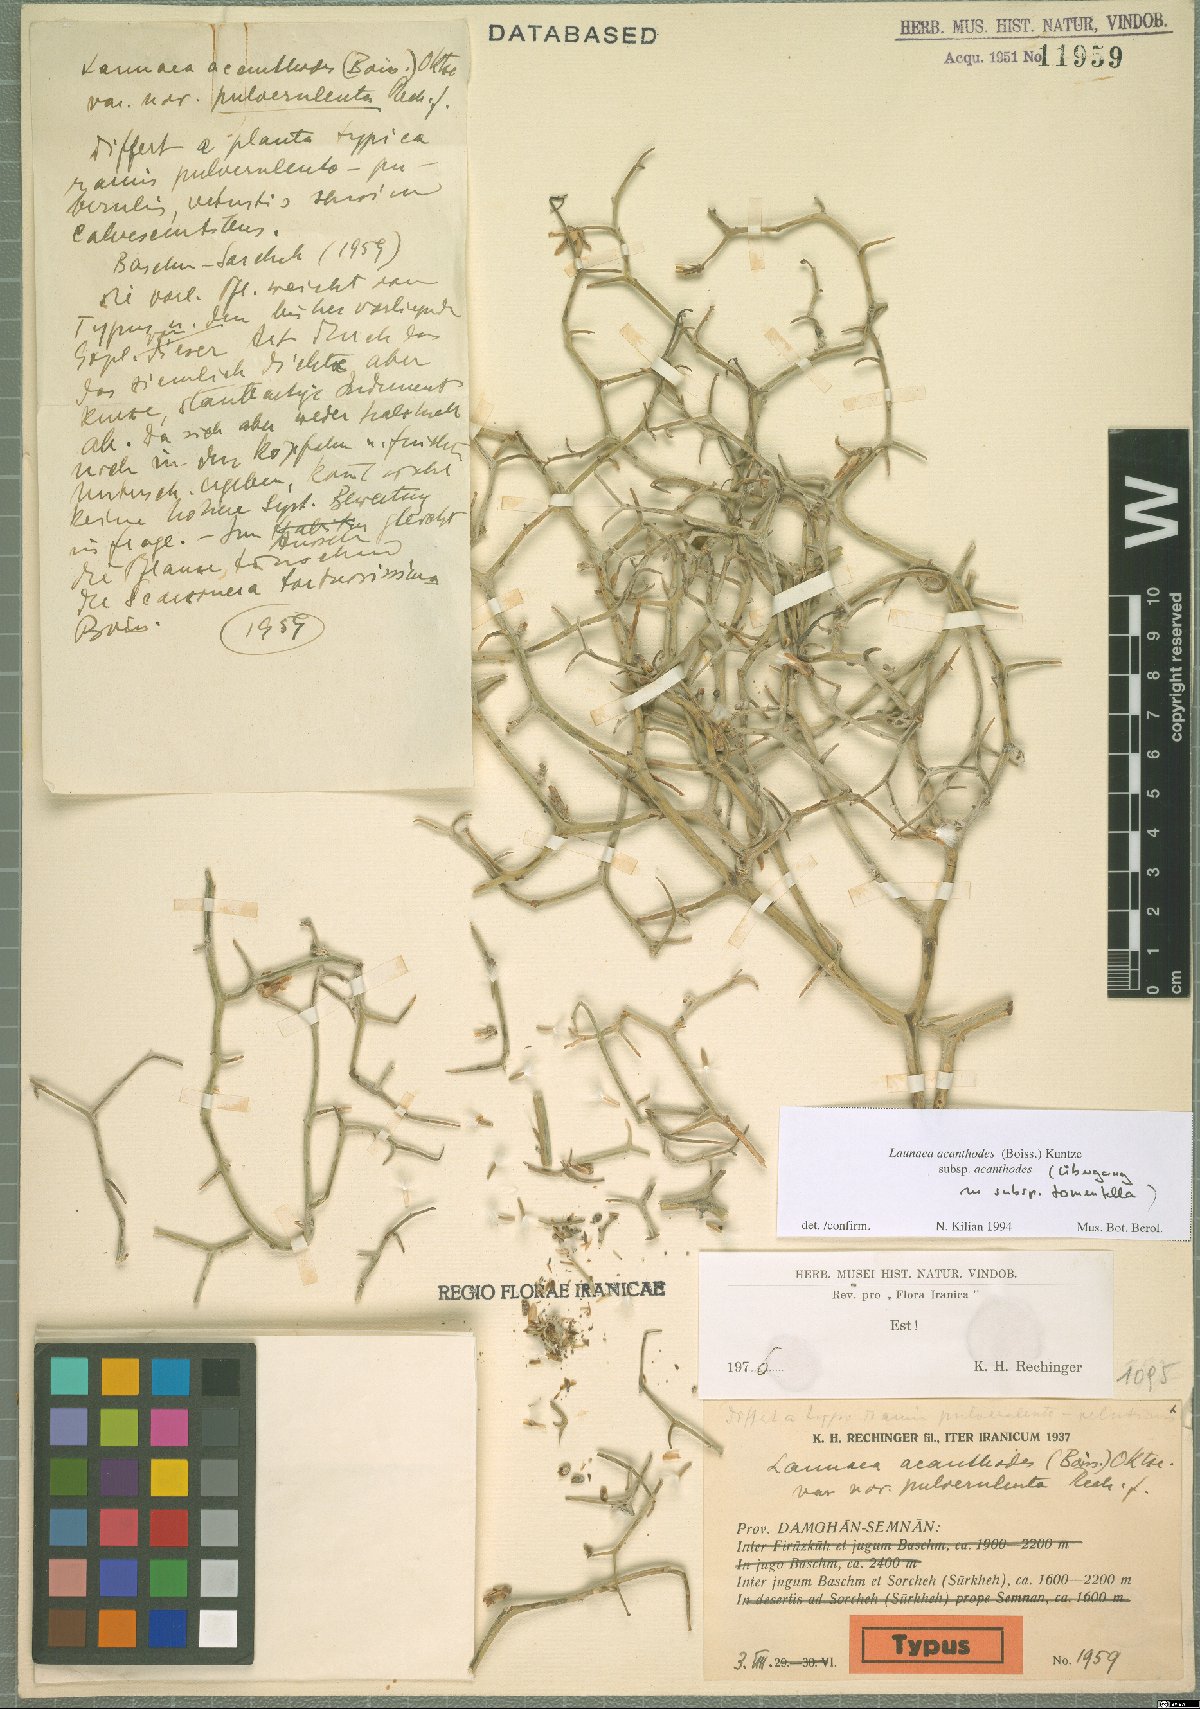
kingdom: Plantae
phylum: Tracheophyta
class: Magnoliopsida
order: Asterales
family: Asteraceae
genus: Launaea
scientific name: Launaea acanthodes
